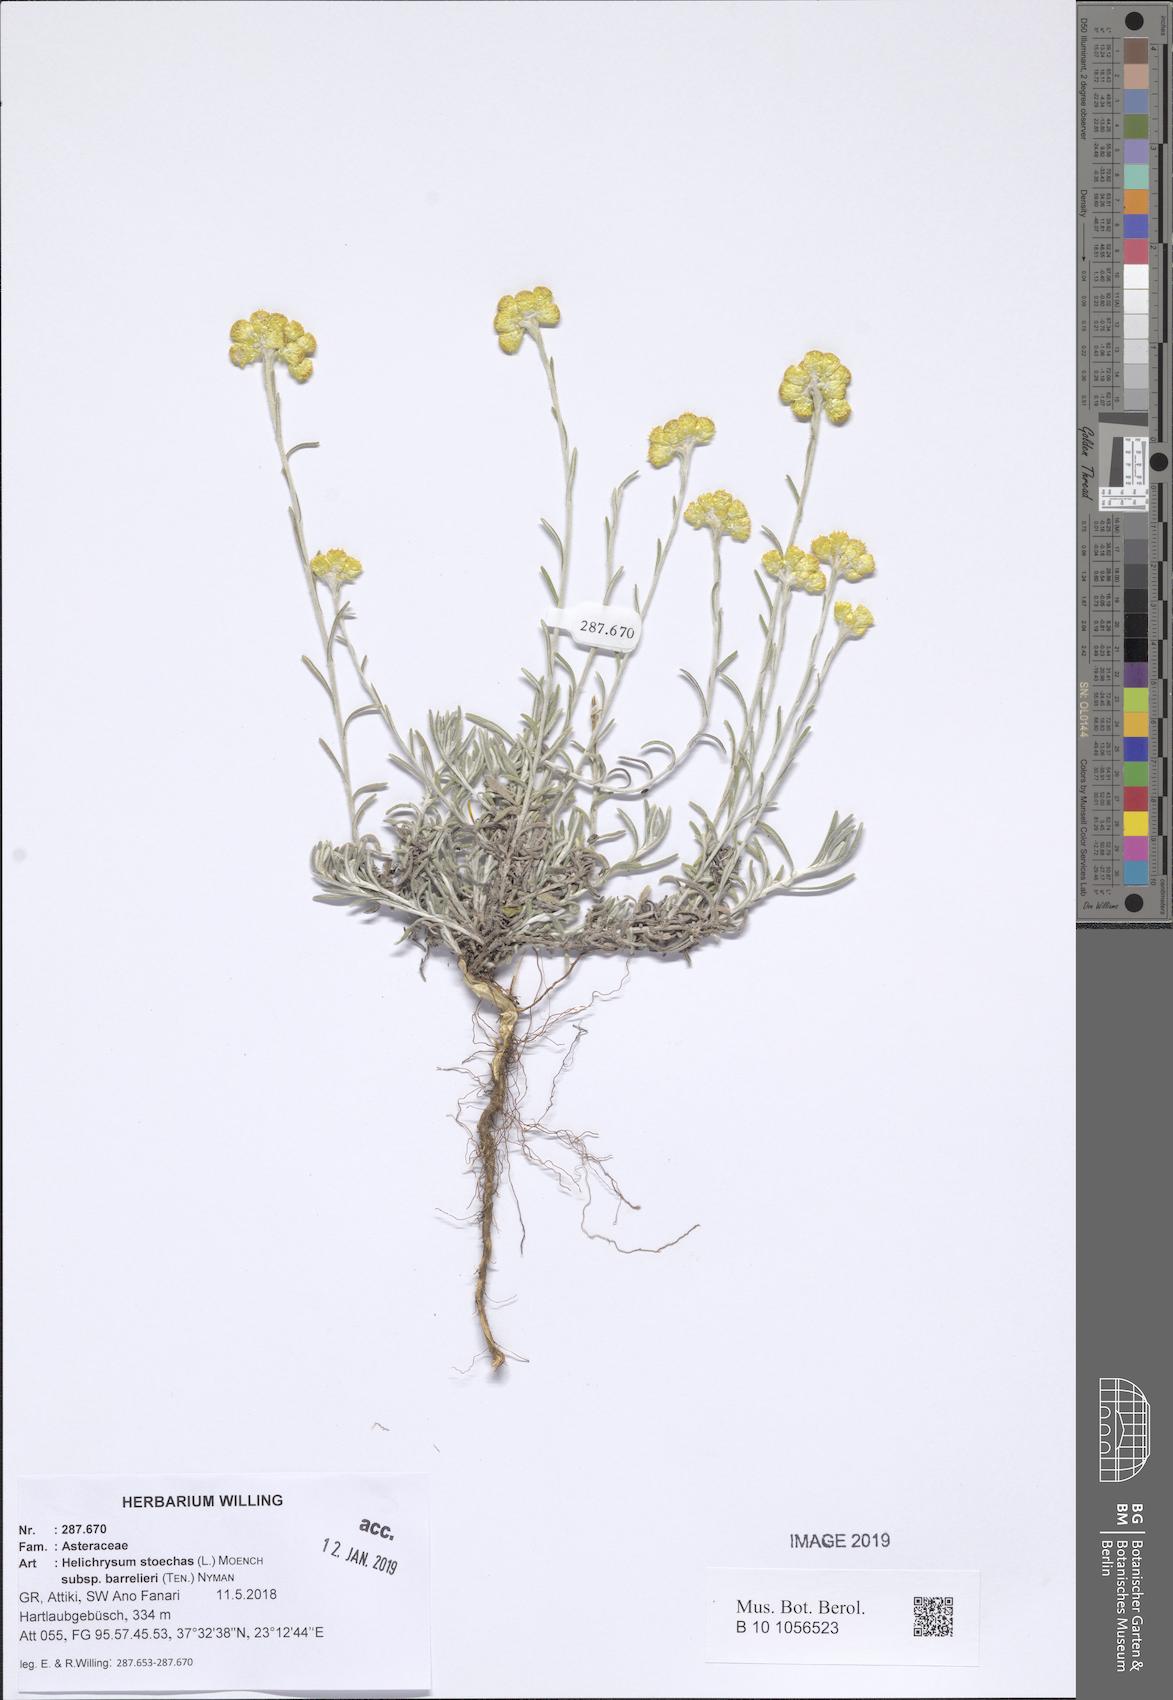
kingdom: Plantae
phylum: Tracheophyta
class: Magnoliopsida
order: Asterales
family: Asteraceae
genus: Helichrysum
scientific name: Helichrysum stoechas
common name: Goldilocks
